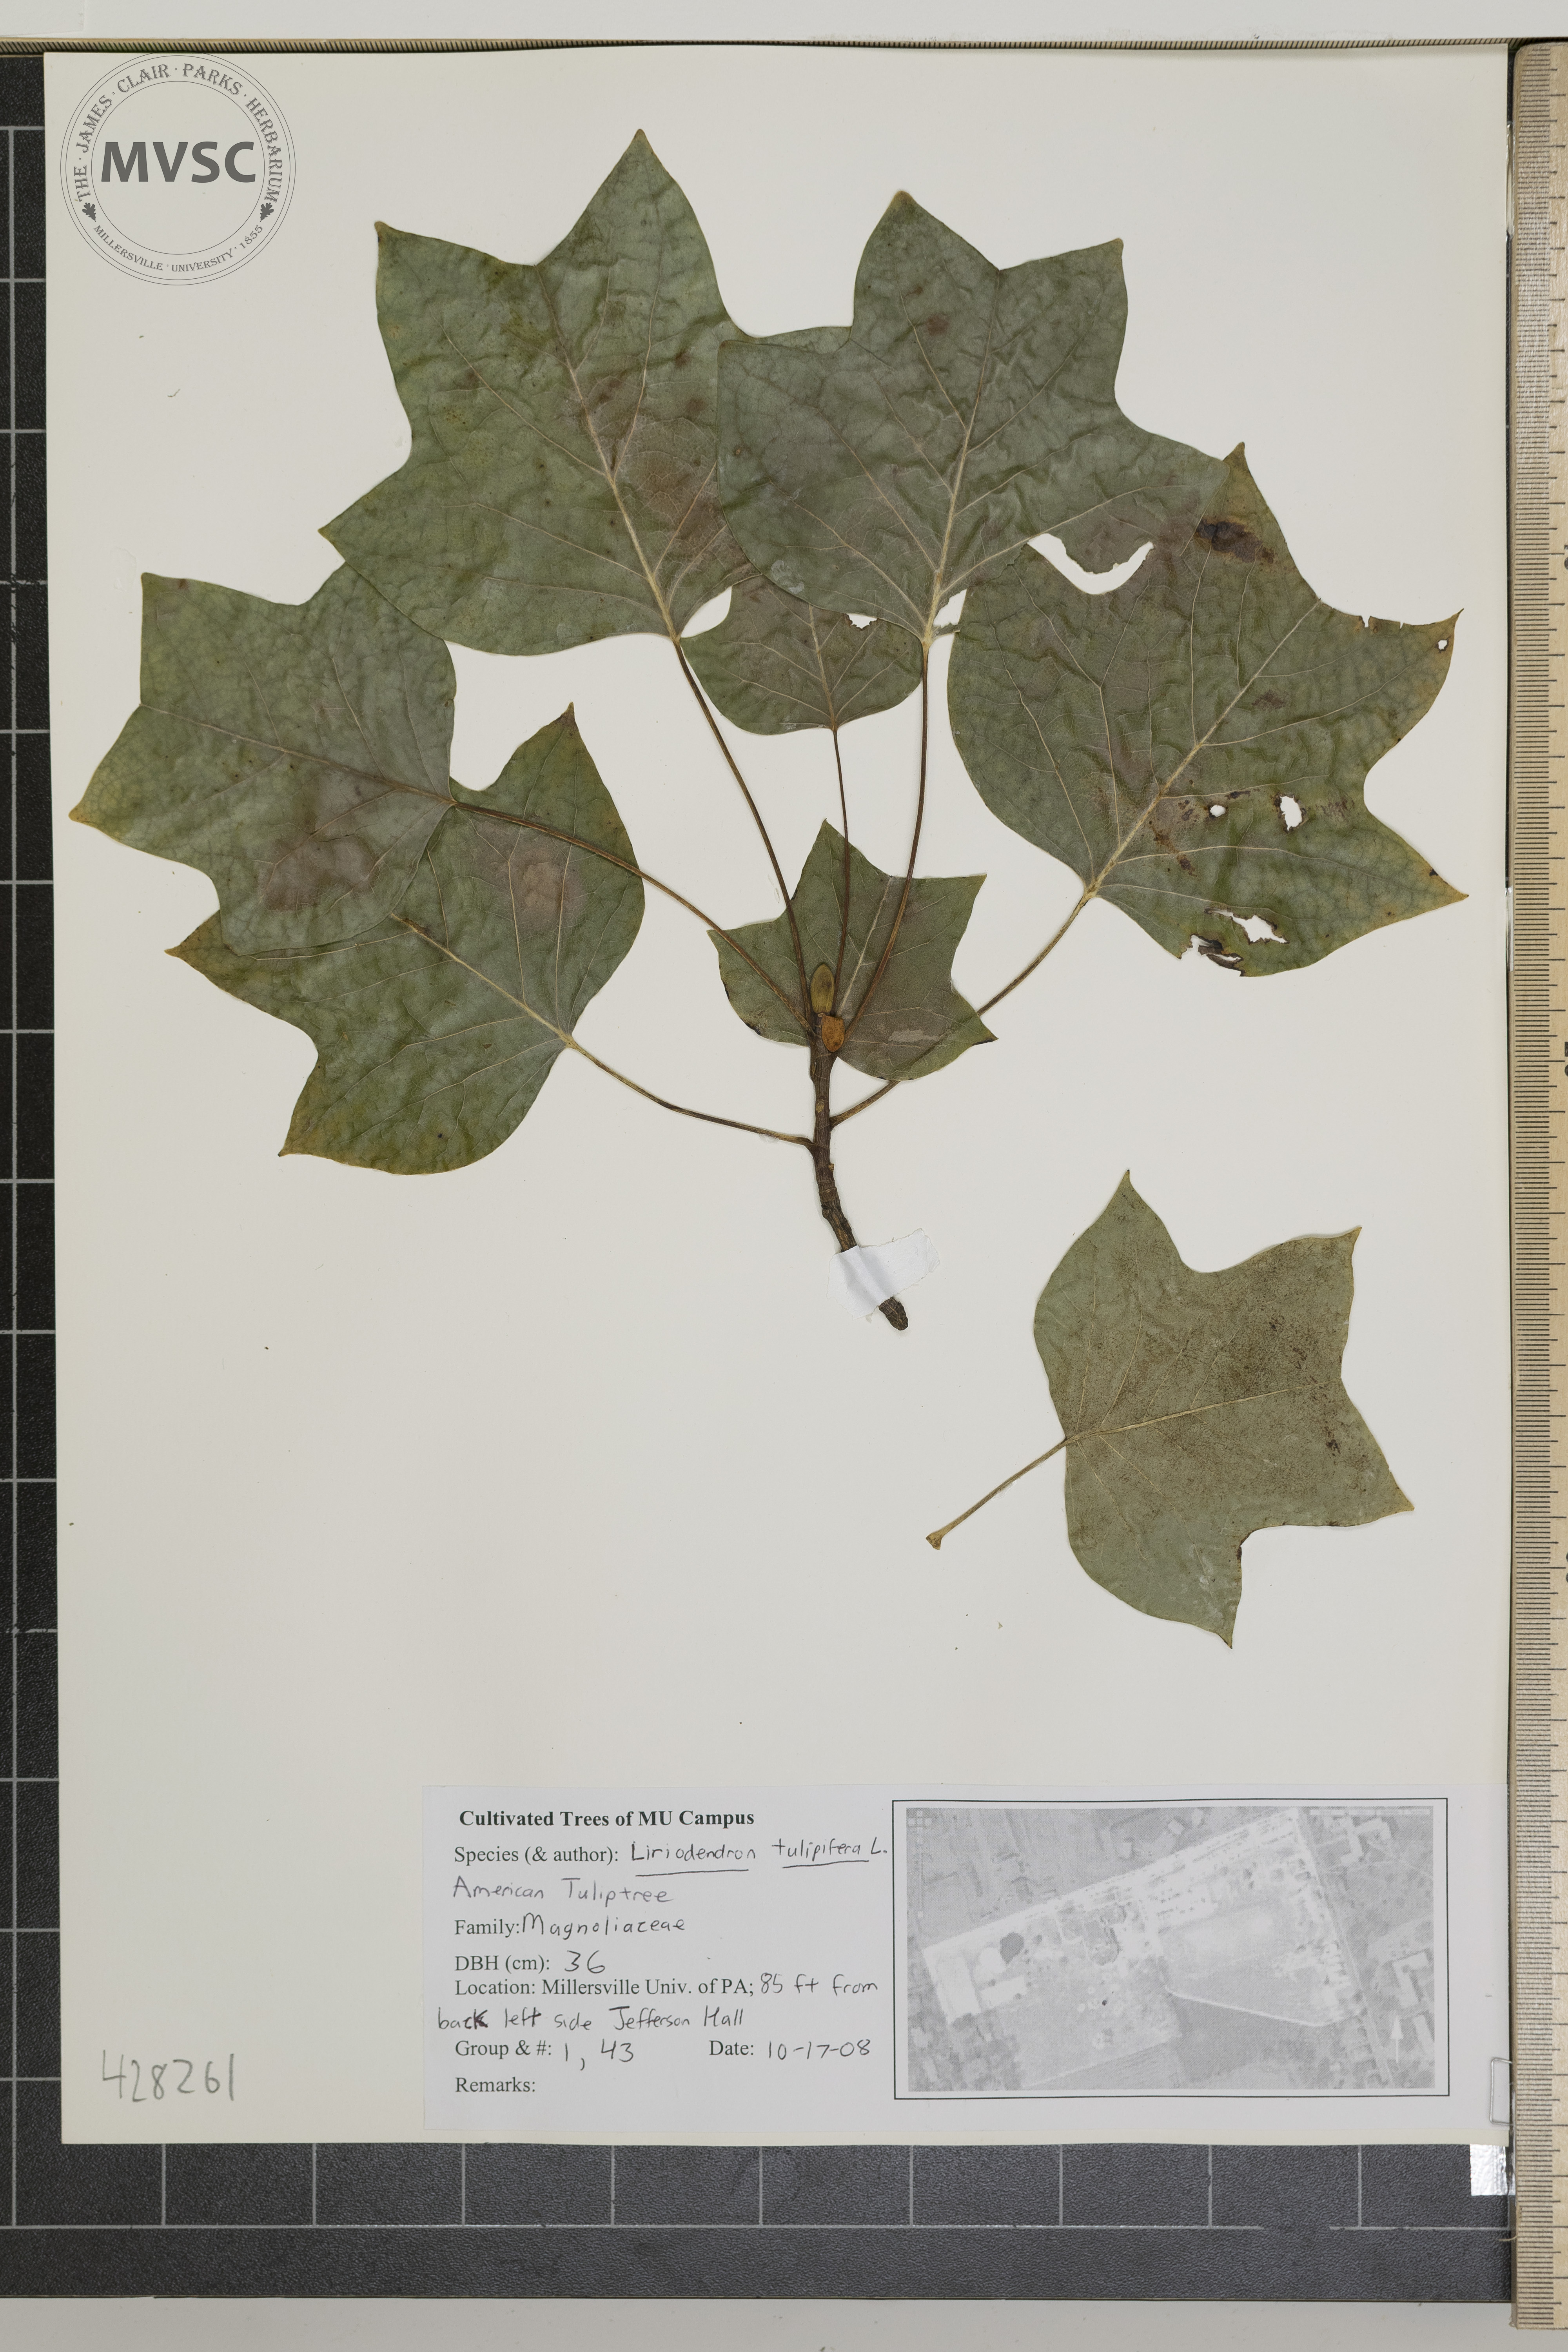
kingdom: Plantae
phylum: Tracheophyta
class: Magnoliopsida
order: Magnoliales
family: Magnoliaceae
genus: Liriodendron
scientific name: Liriodendron tulipifera
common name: Tulip Poplar
